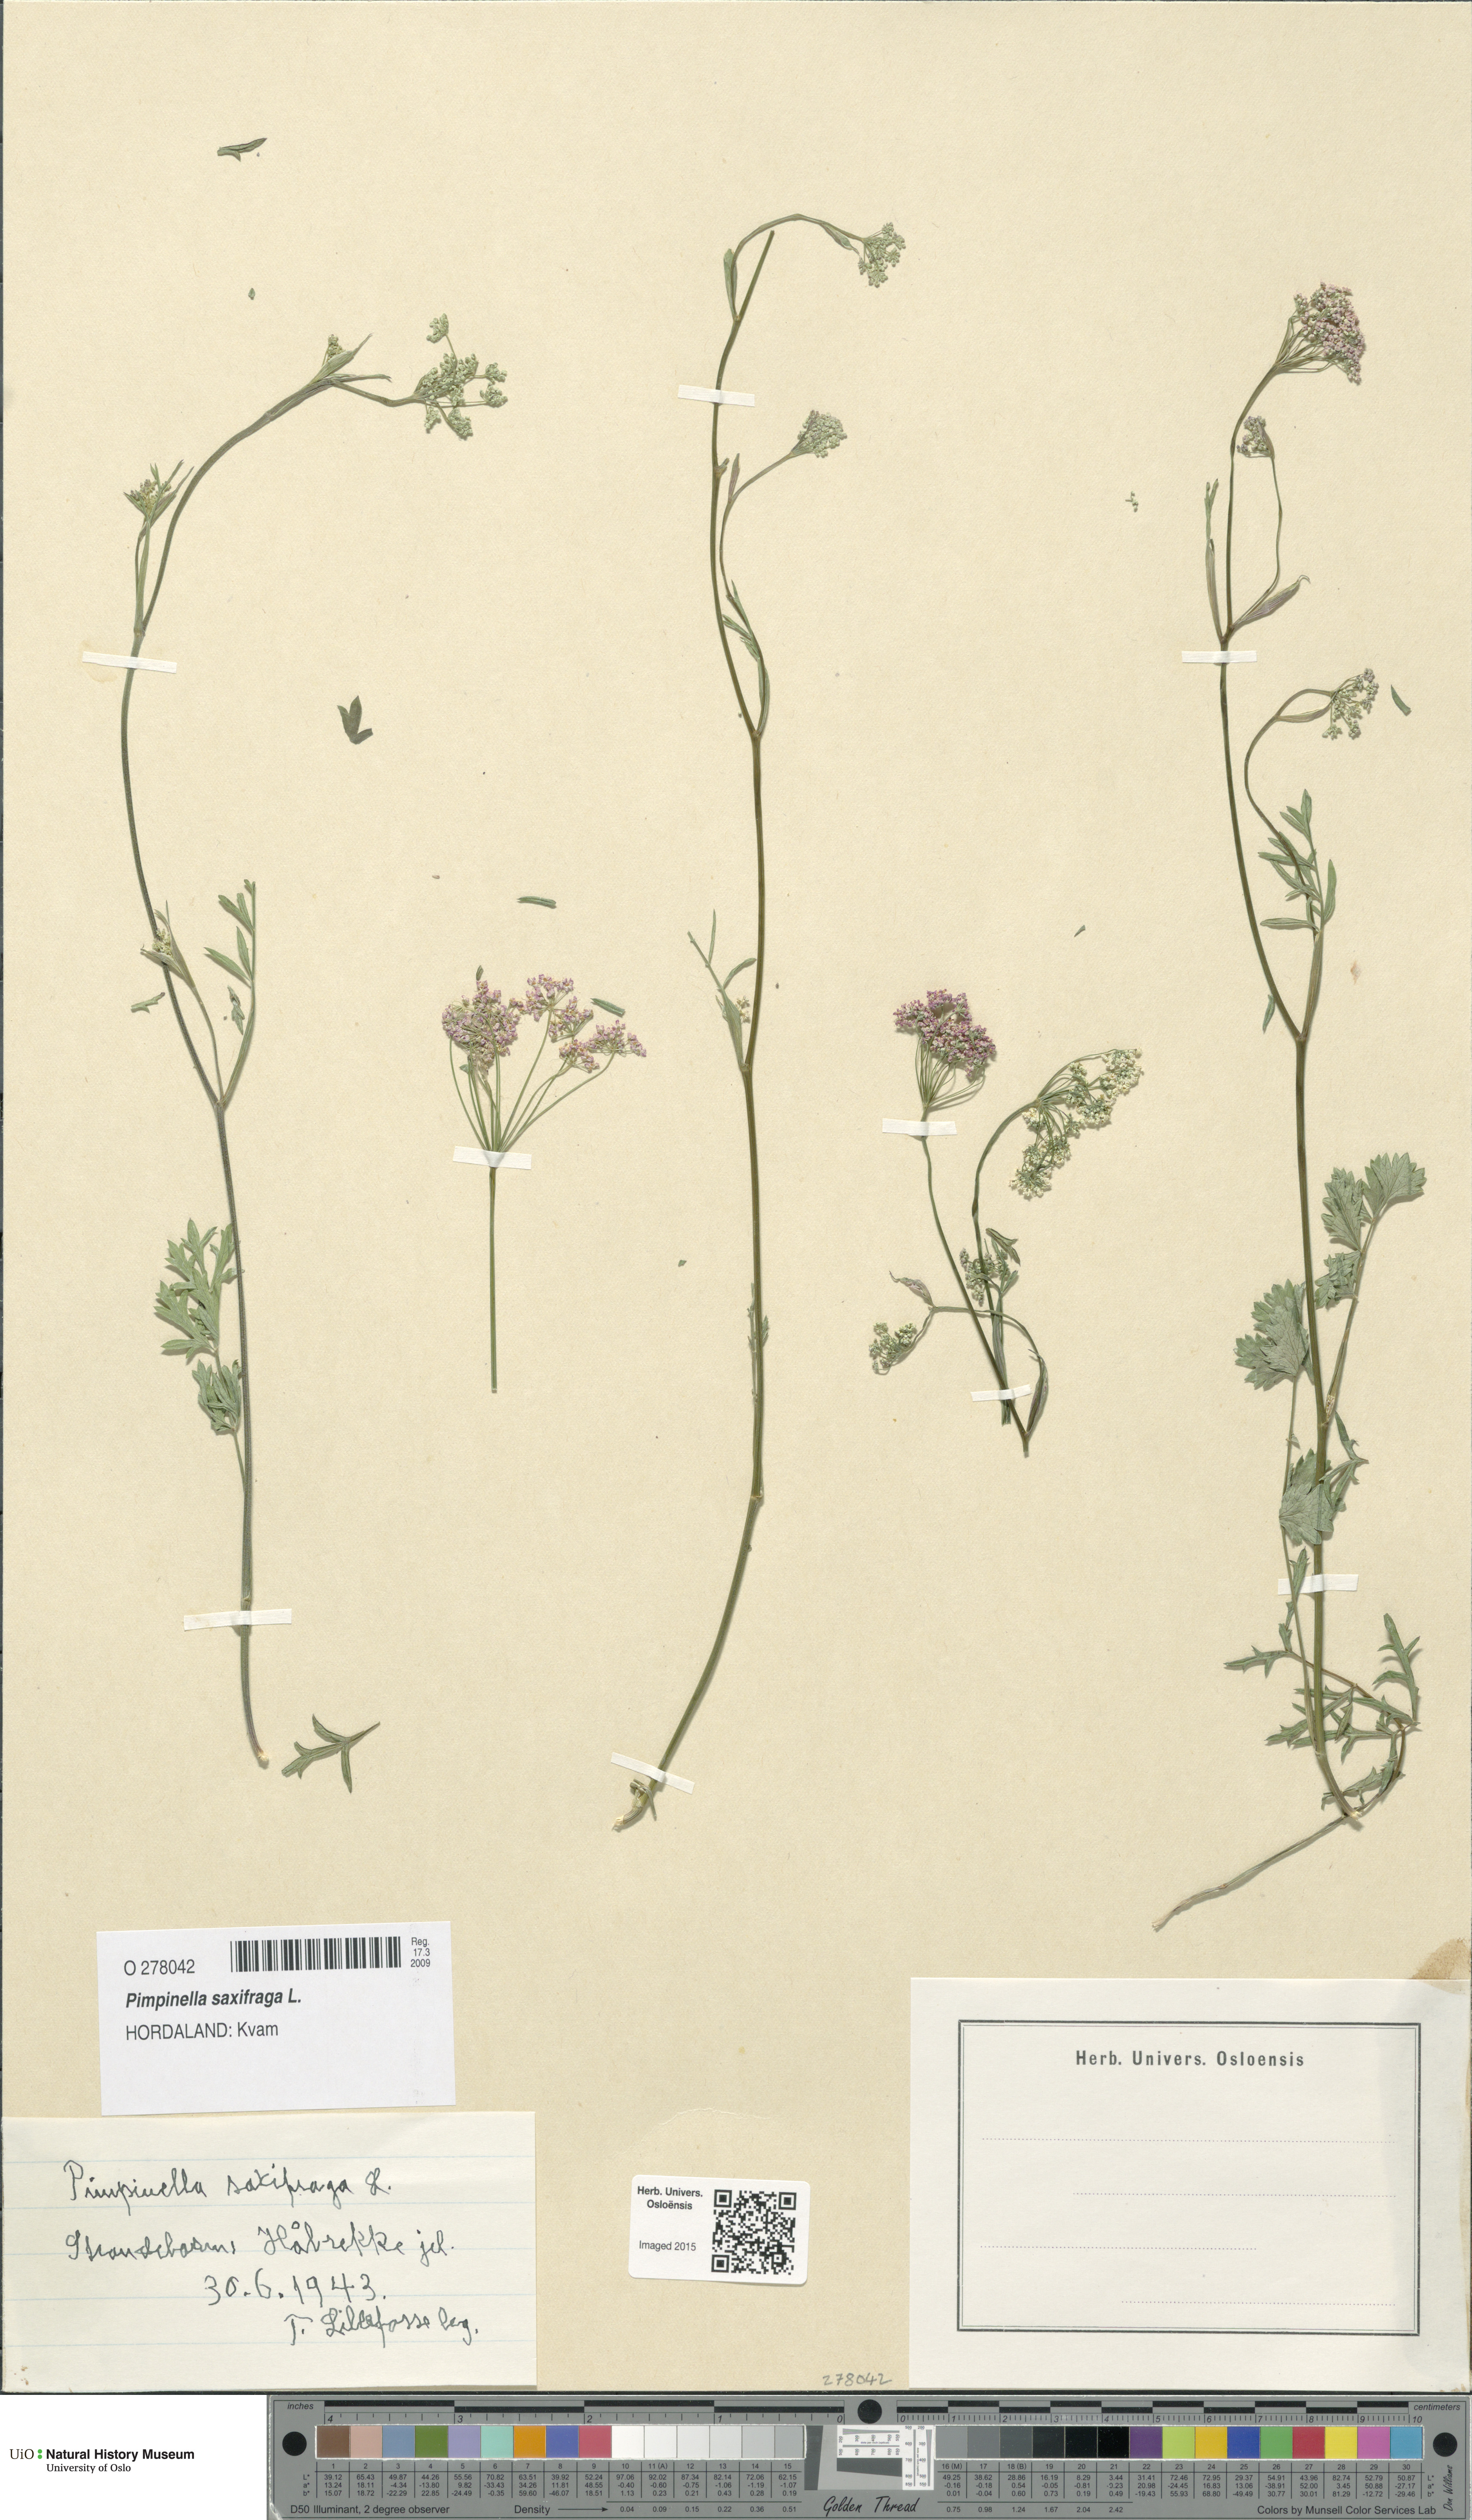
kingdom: Plantae
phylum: Tracheophyta
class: Magnoliopsida
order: Apiales
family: Apiaceae
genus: Pimpinella
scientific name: Pimpinella saxifraga
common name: Burnet-saxifrage
